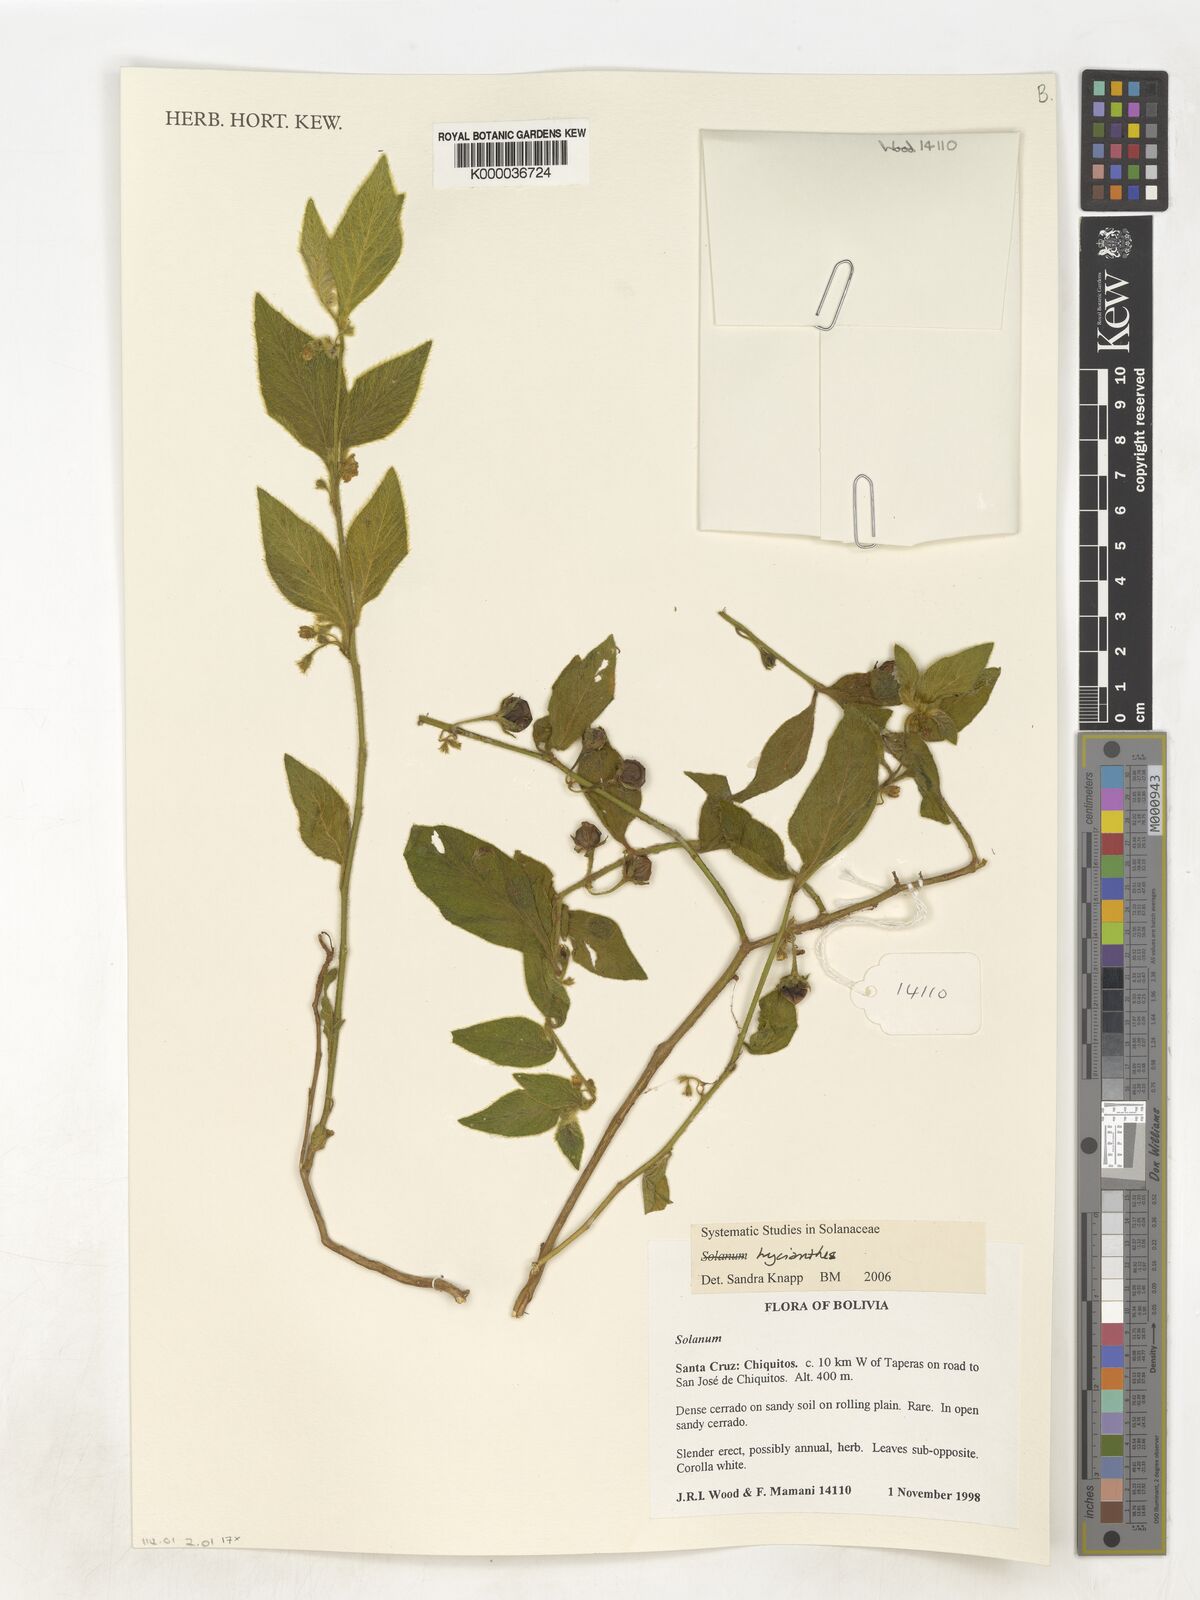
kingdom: Plantae
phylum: Tracheophyta
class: Magnoliopsida
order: Solanales
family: Solanaceae
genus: Lycianthes
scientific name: Lycianthes
